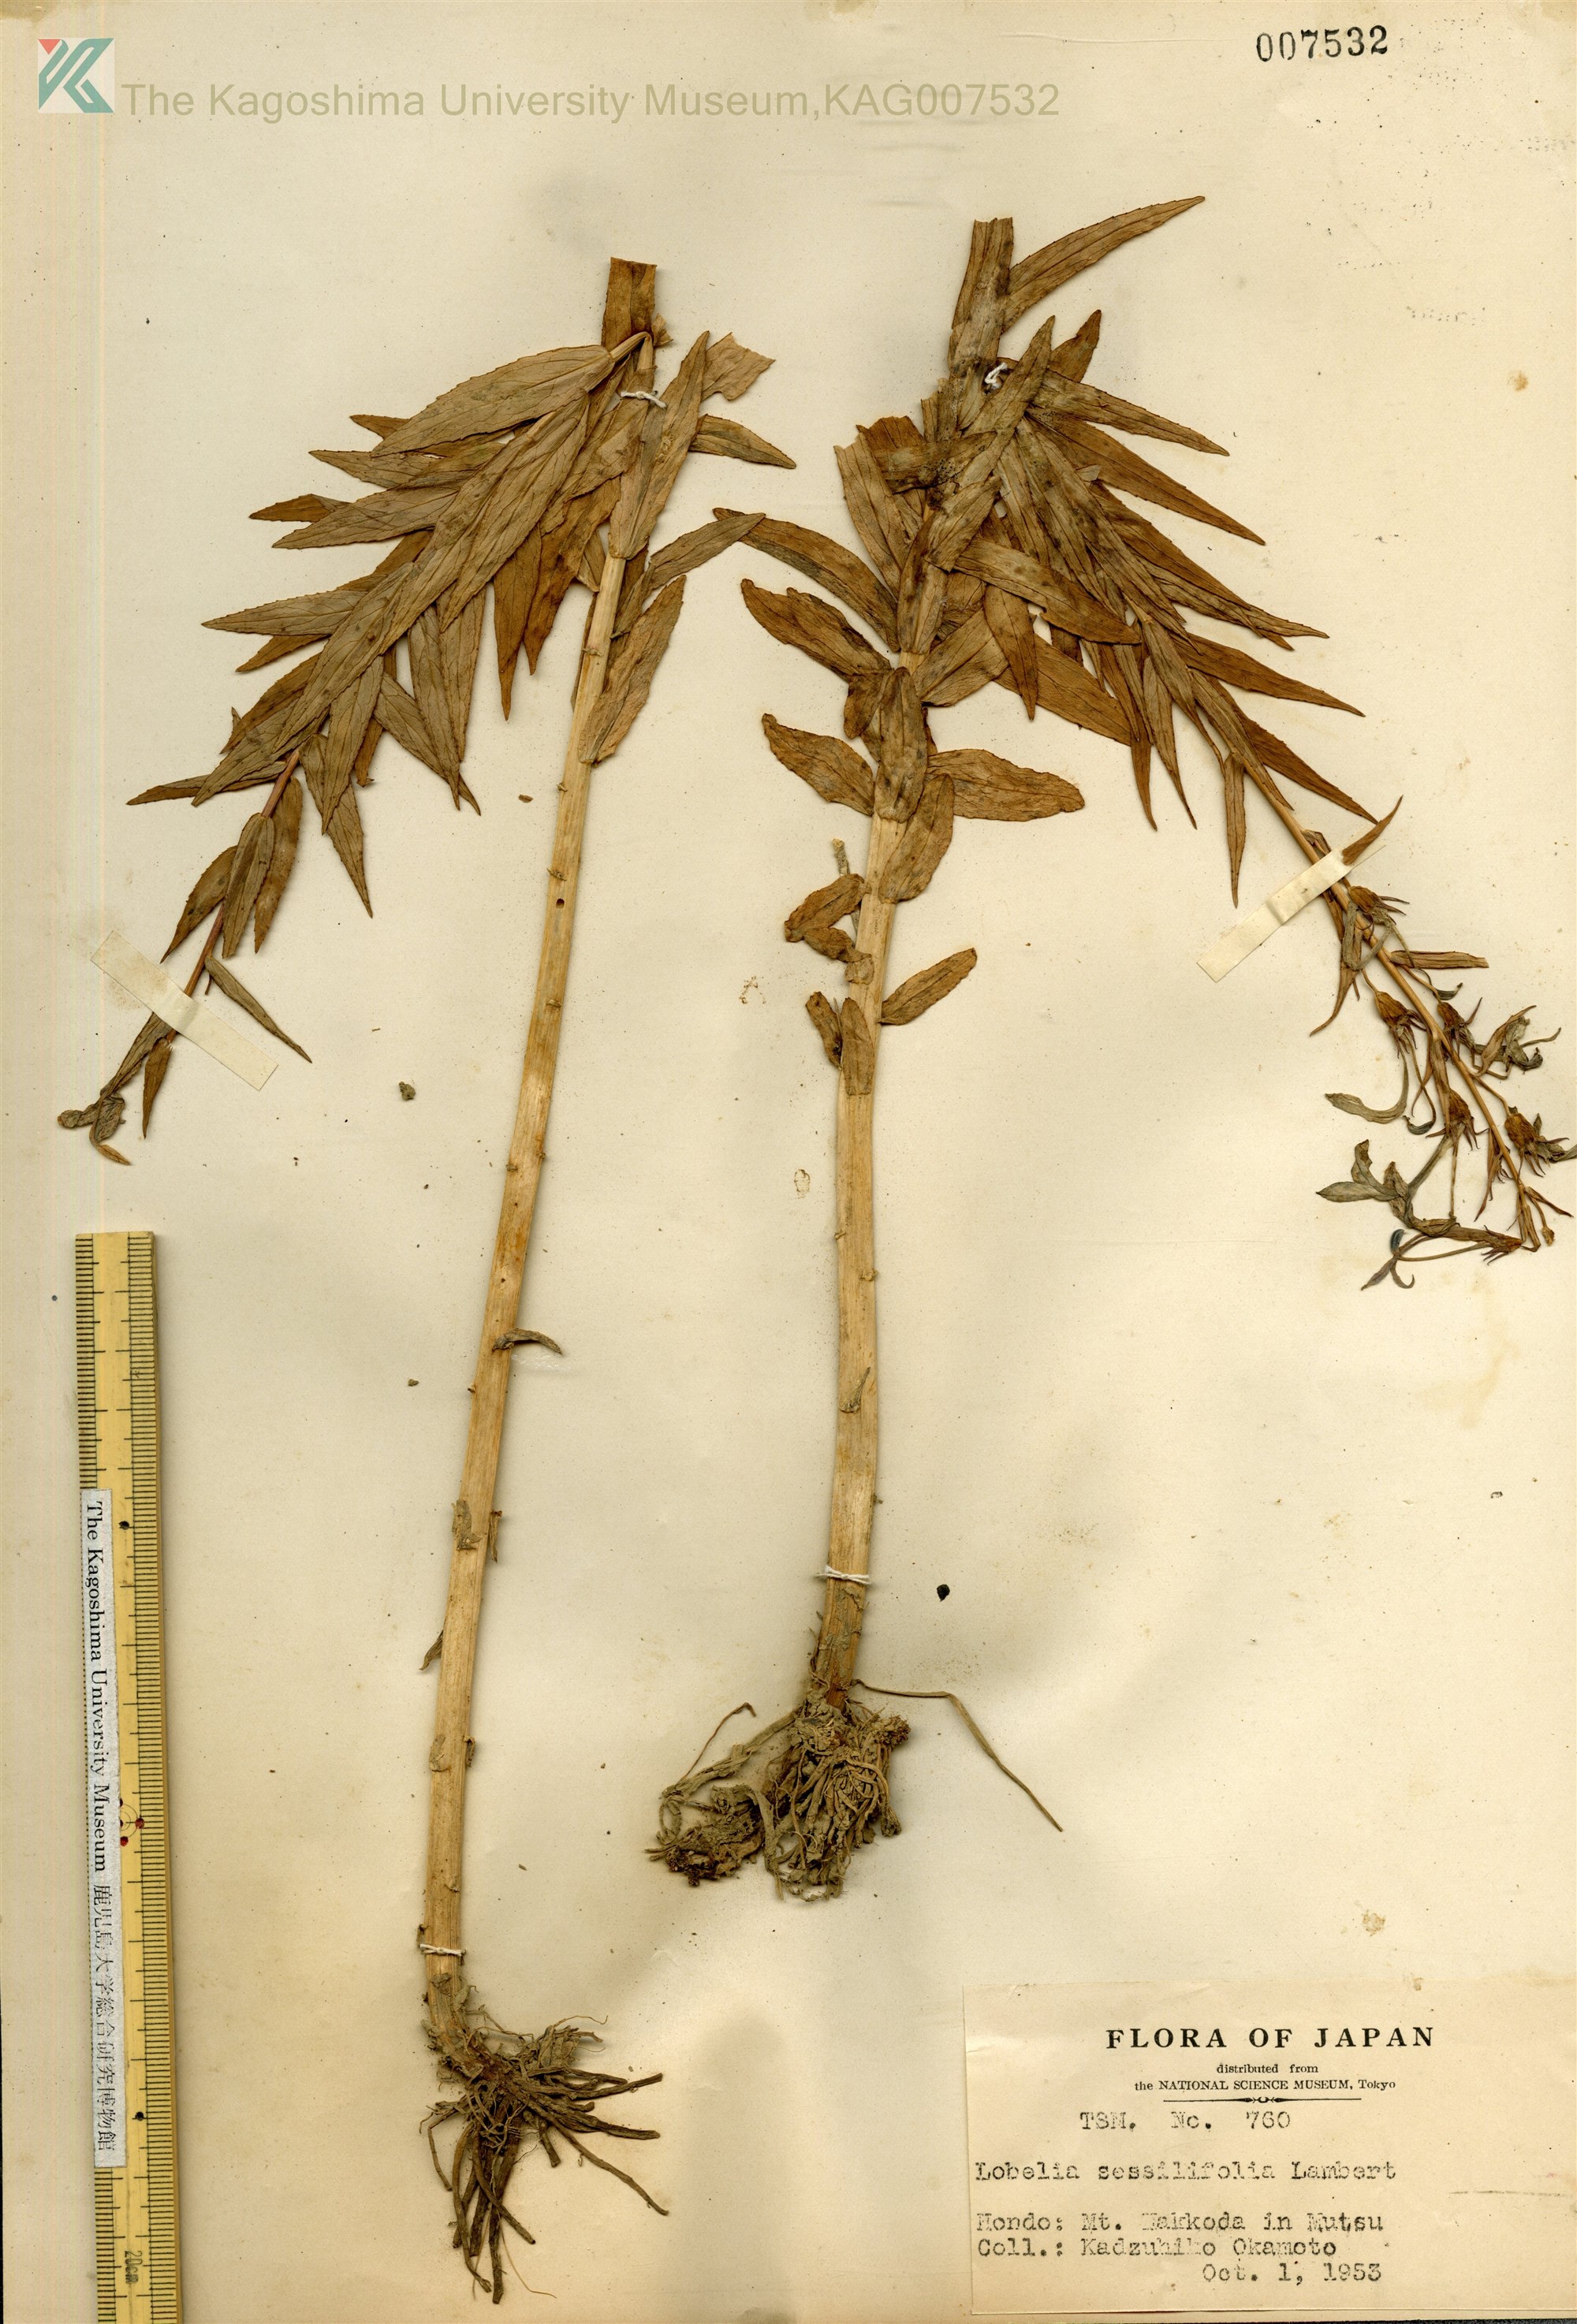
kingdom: Plantae
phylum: Tracheophyta
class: Magnoliopsida
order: Asterales
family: Campanulaceae
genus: Lobelia
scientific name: Lobelia sessilifolia
